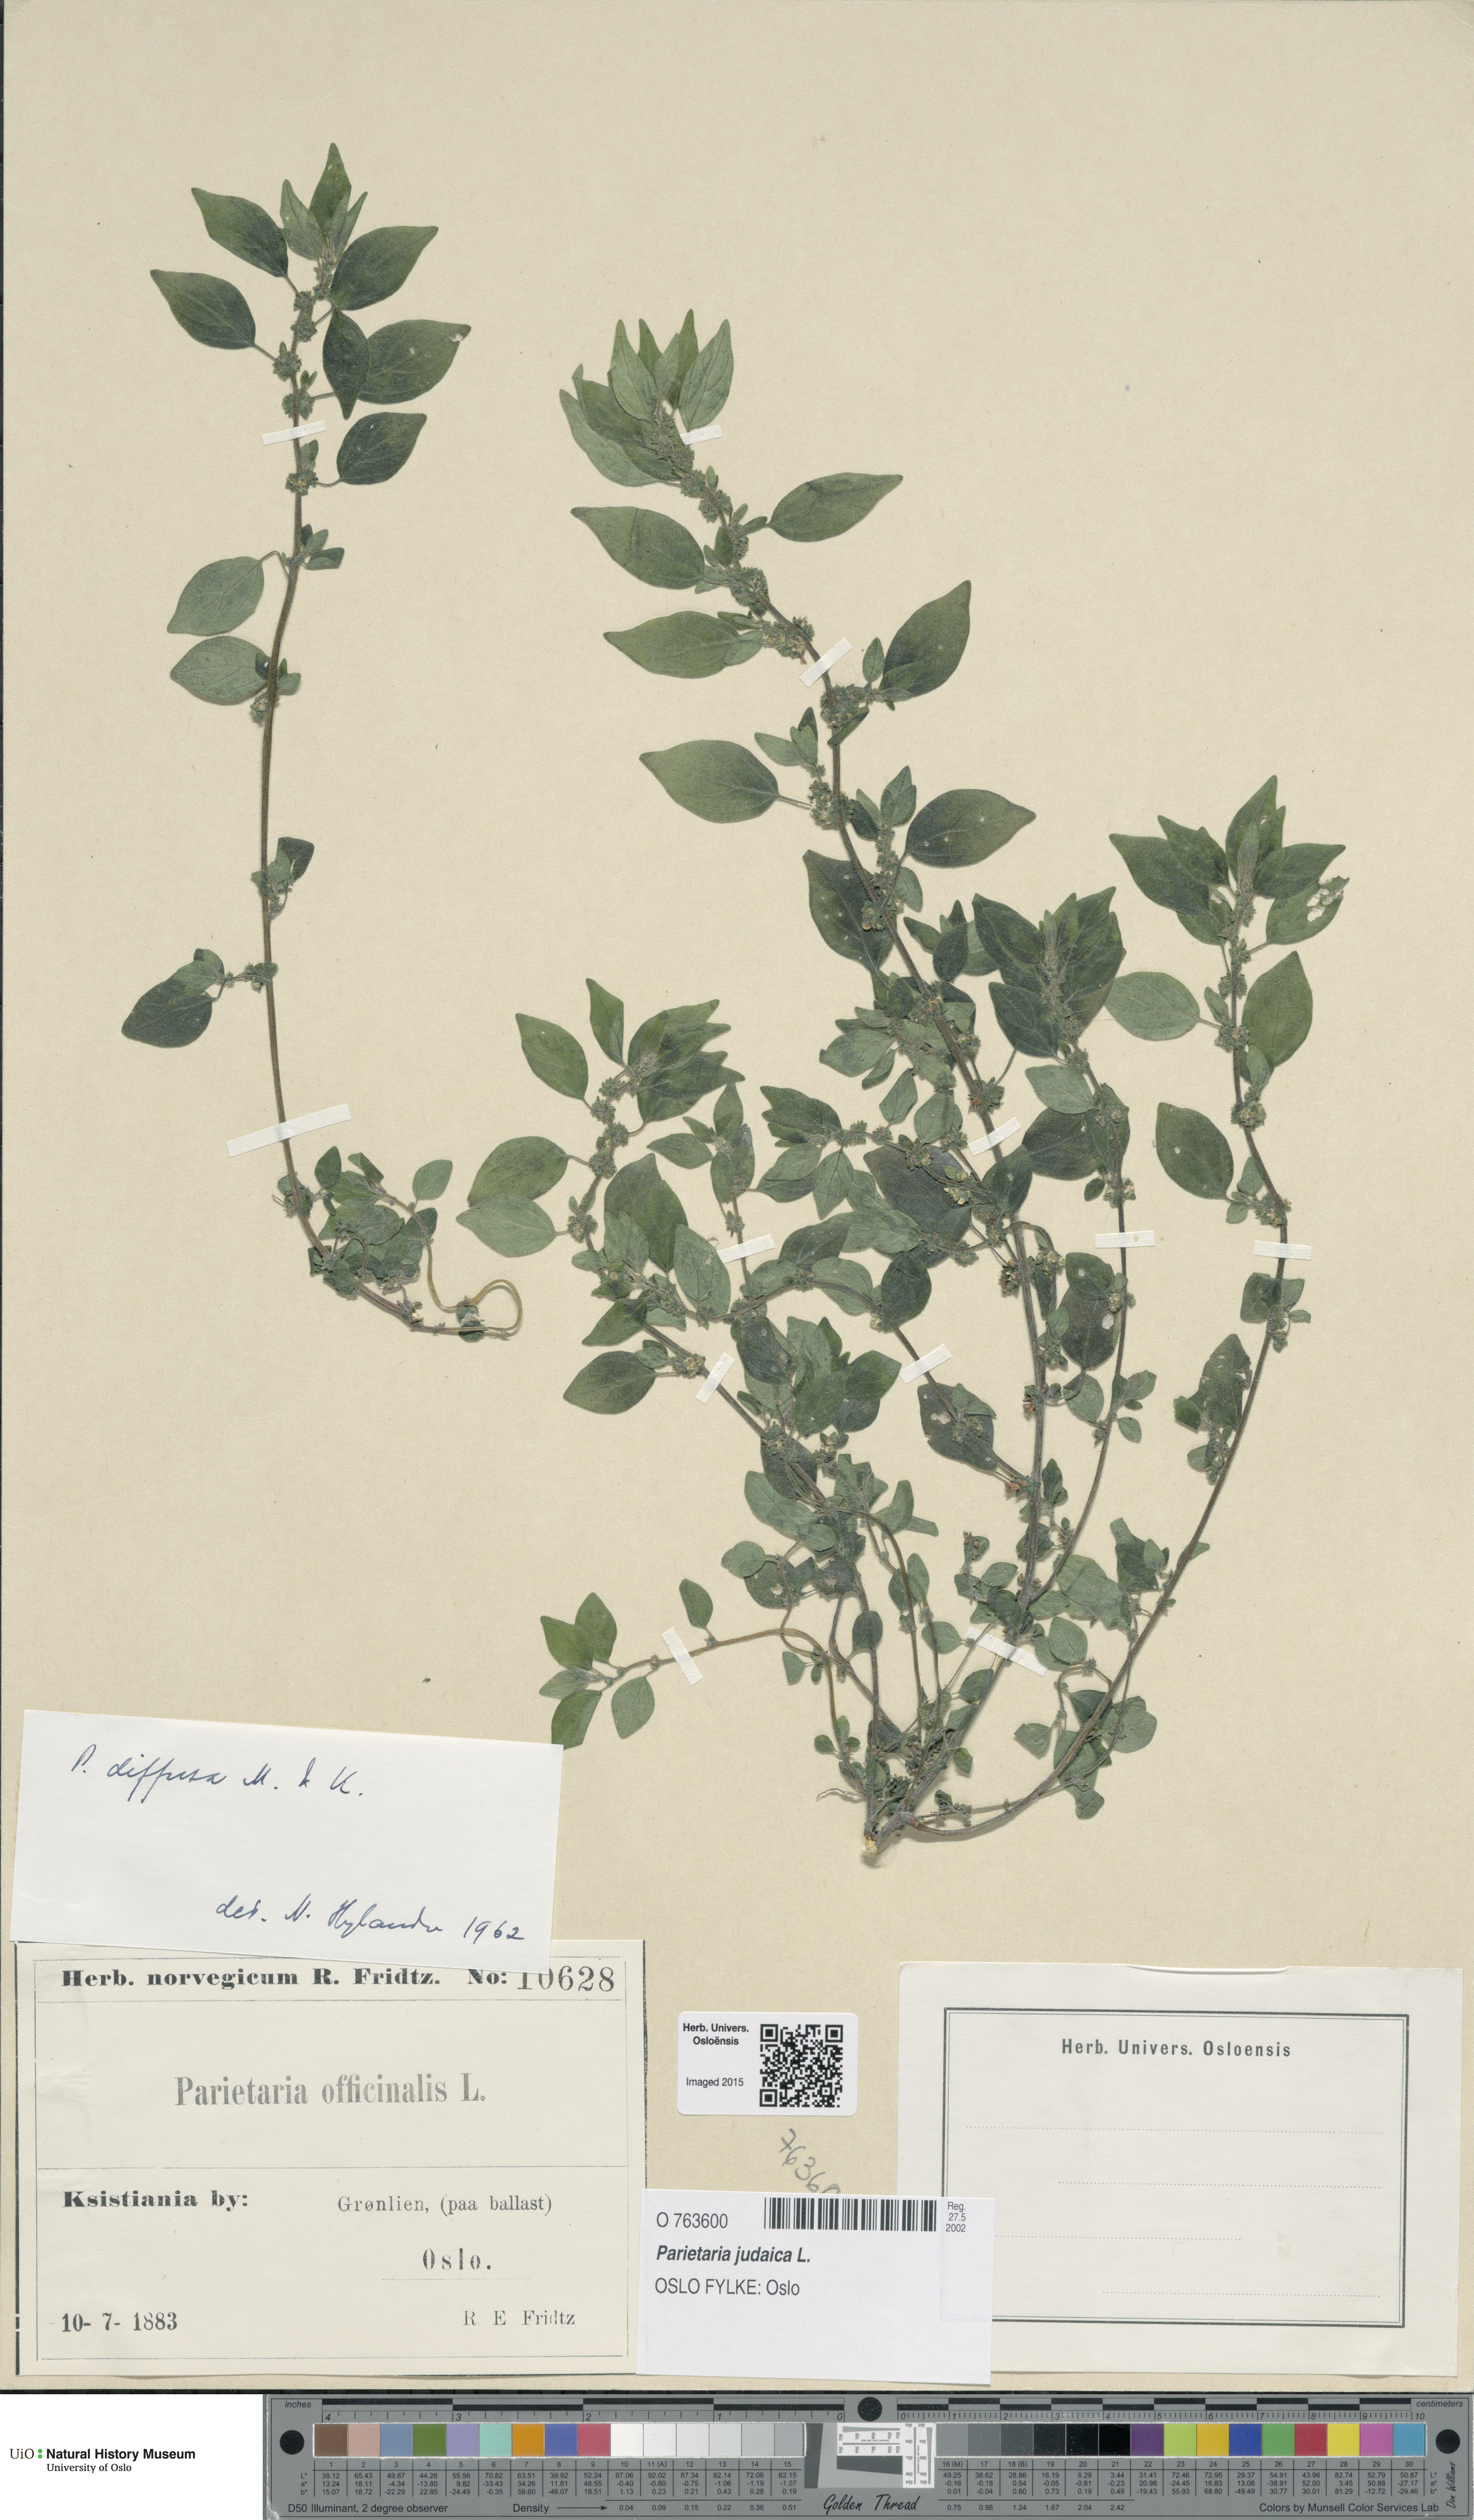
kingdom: Plantae
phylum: Tracheophyta
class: Magnoliopsida
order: Rosales
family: Urticaceae
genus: Parietaria
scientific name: Parietaria judaica
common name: Pellitory-of-the-wall
